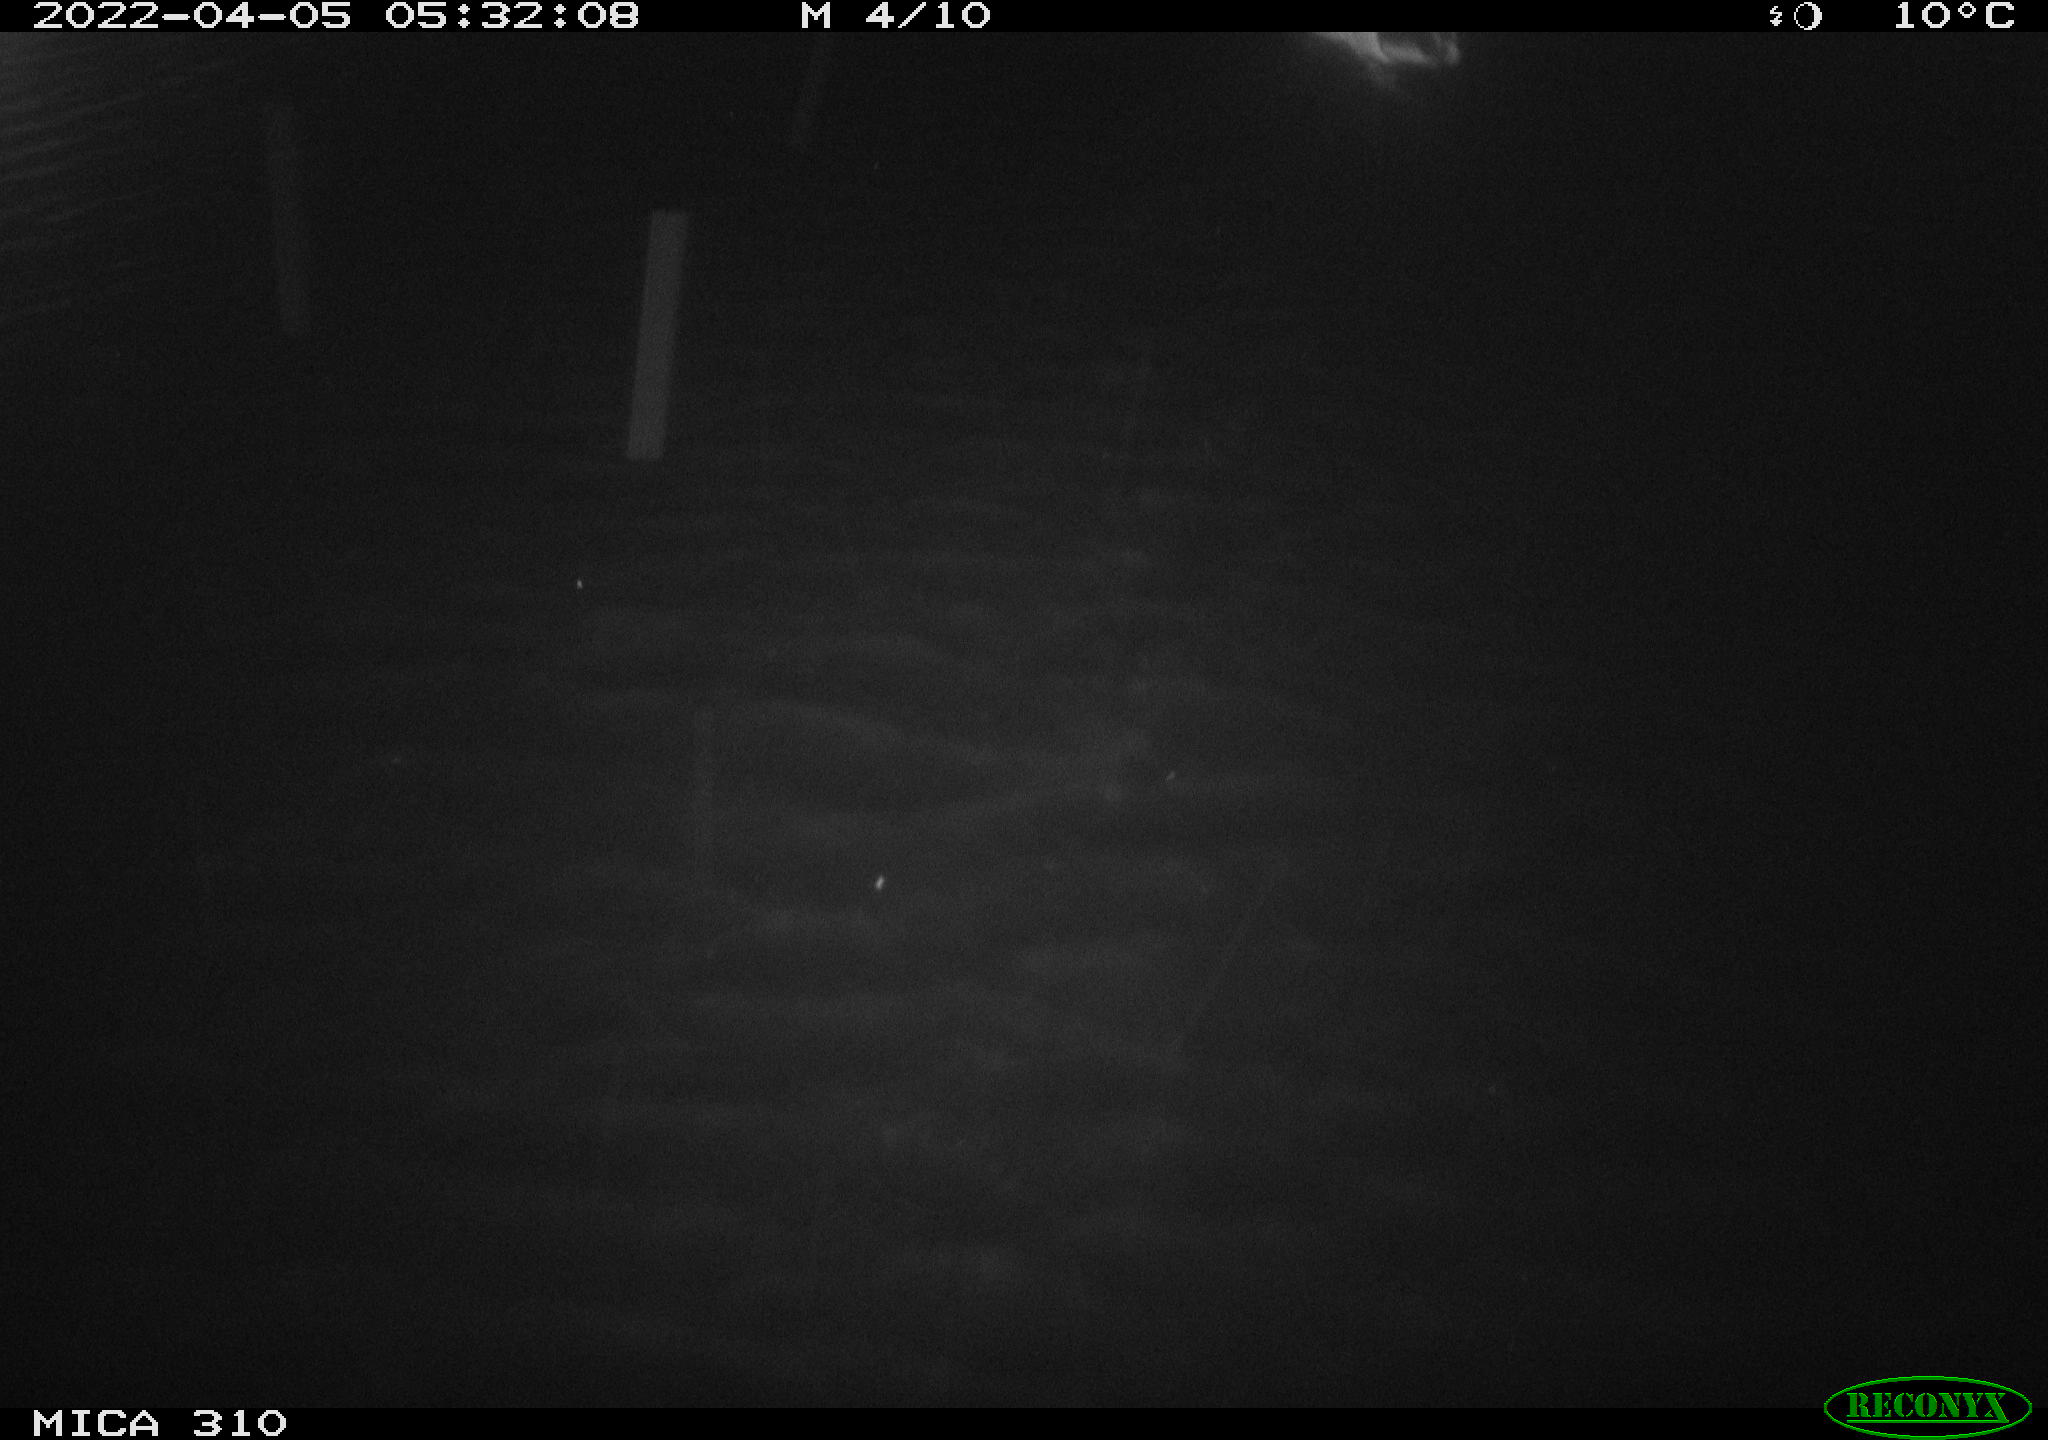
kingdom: Animalia
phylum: Chordata
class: Aves
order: Anseriformes
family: Anatidae
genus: Anas
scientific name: Anas platyrhynchos
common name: Mallard
